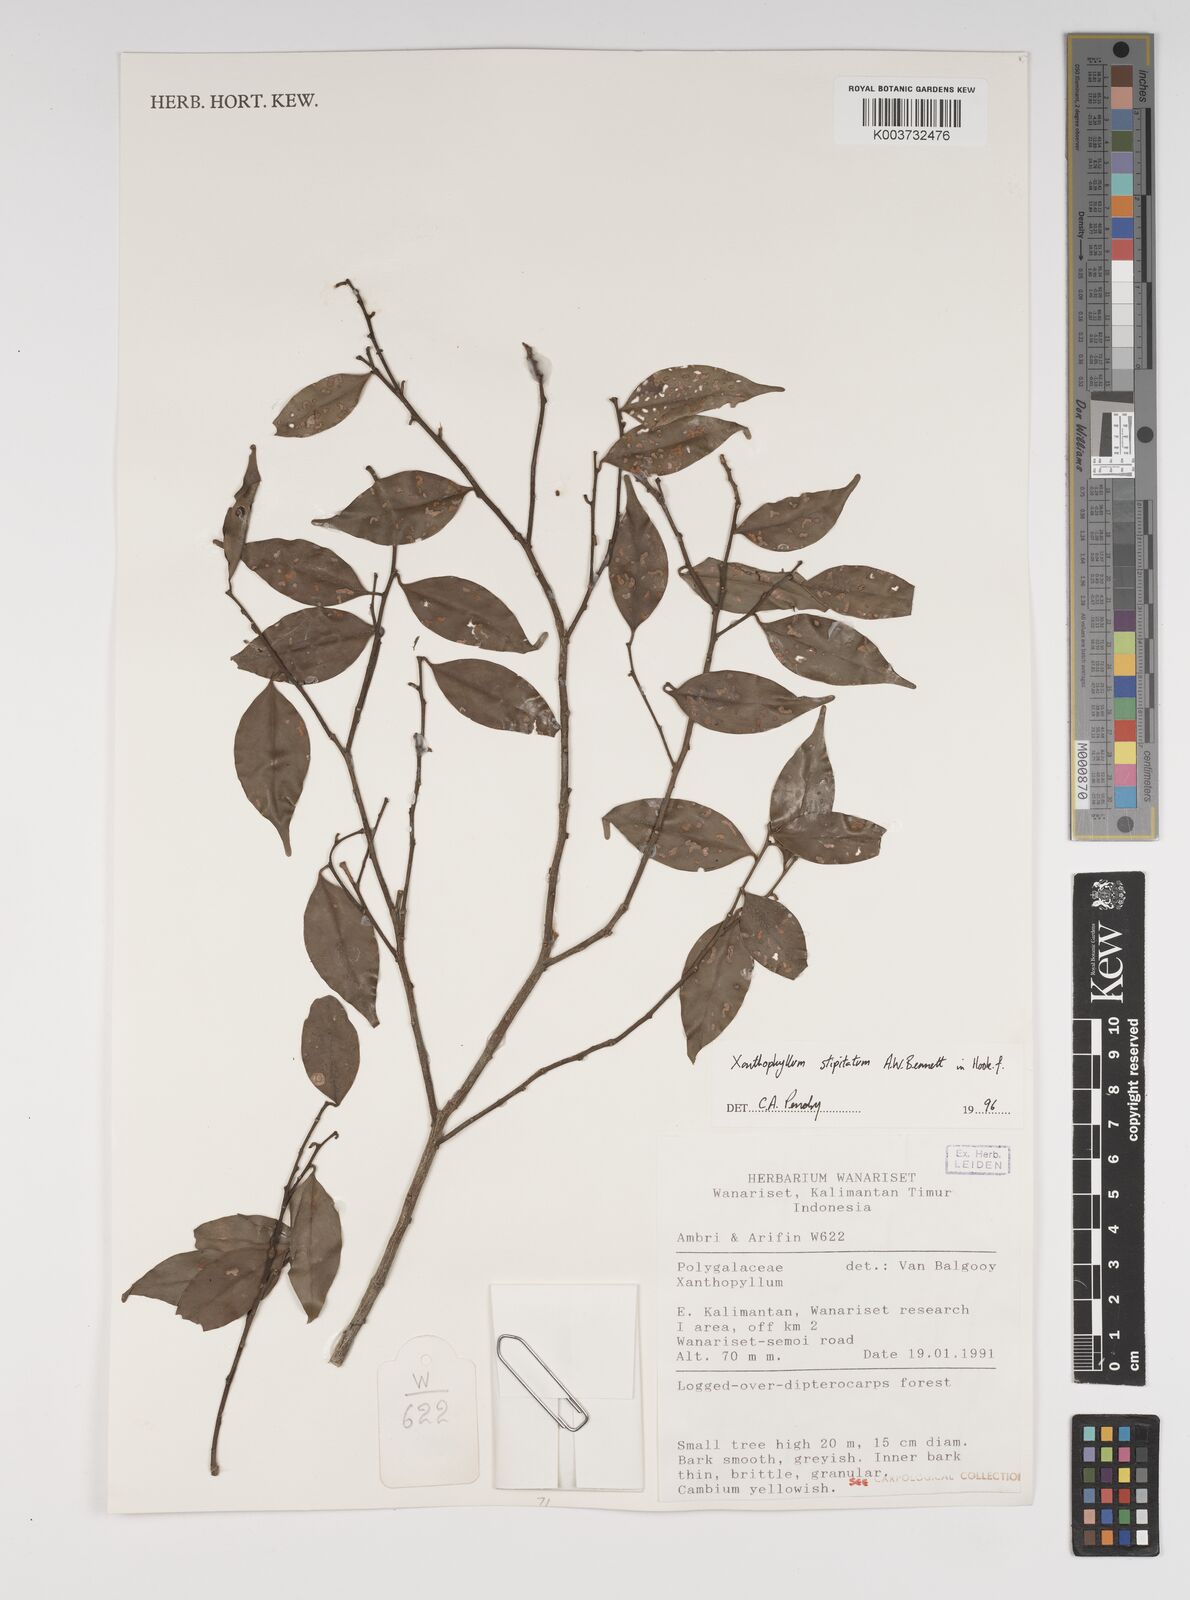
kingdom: Plantae
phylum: Tracheophyta
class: Magnoliopsida
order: Fabales
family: Polygalaceae
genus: Xanthophyllum
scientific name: Xanthophyllum stipitatum
